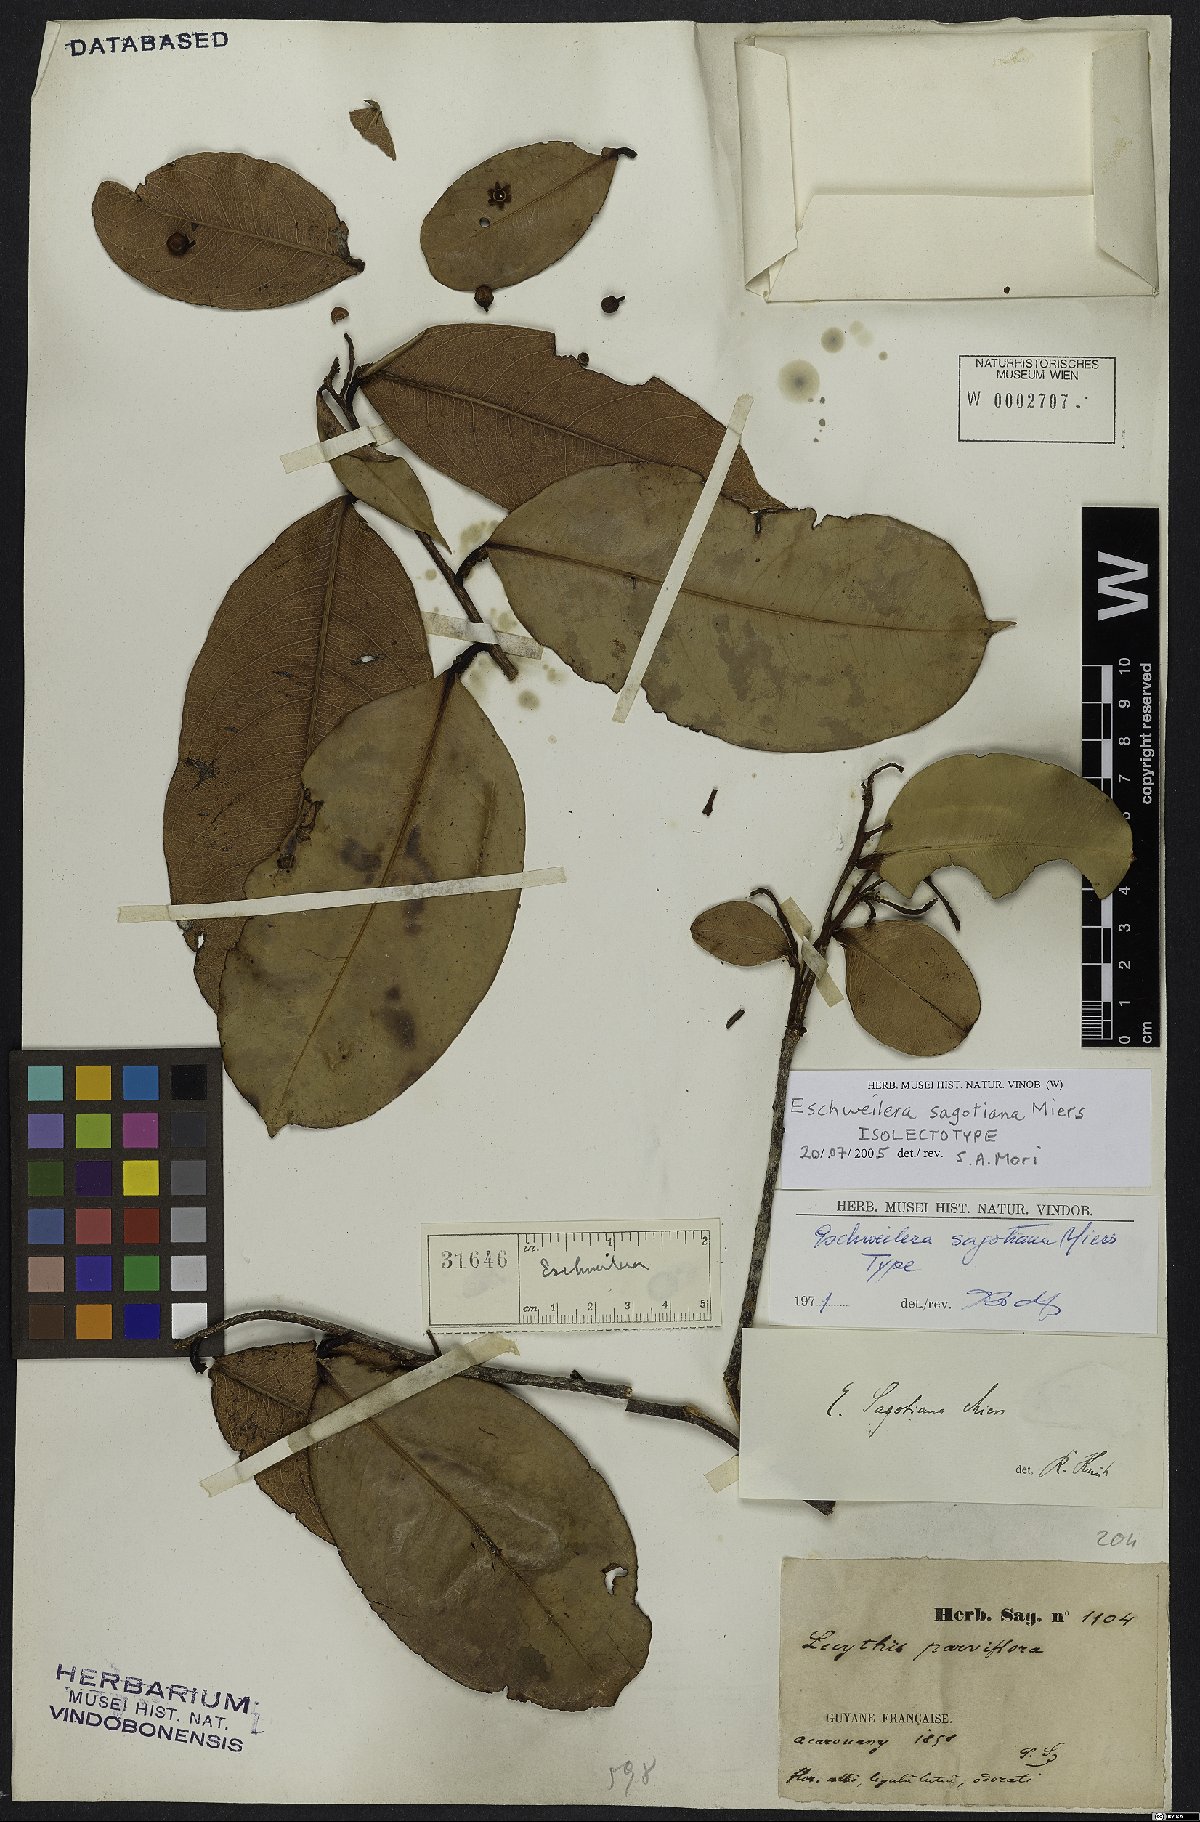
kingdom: Plantae
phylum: Tracheophyta
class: Magnoliopsida
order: Ericales
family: Lecythidaceae
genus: Eschweilera
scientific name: Eschweilera sagotiana
